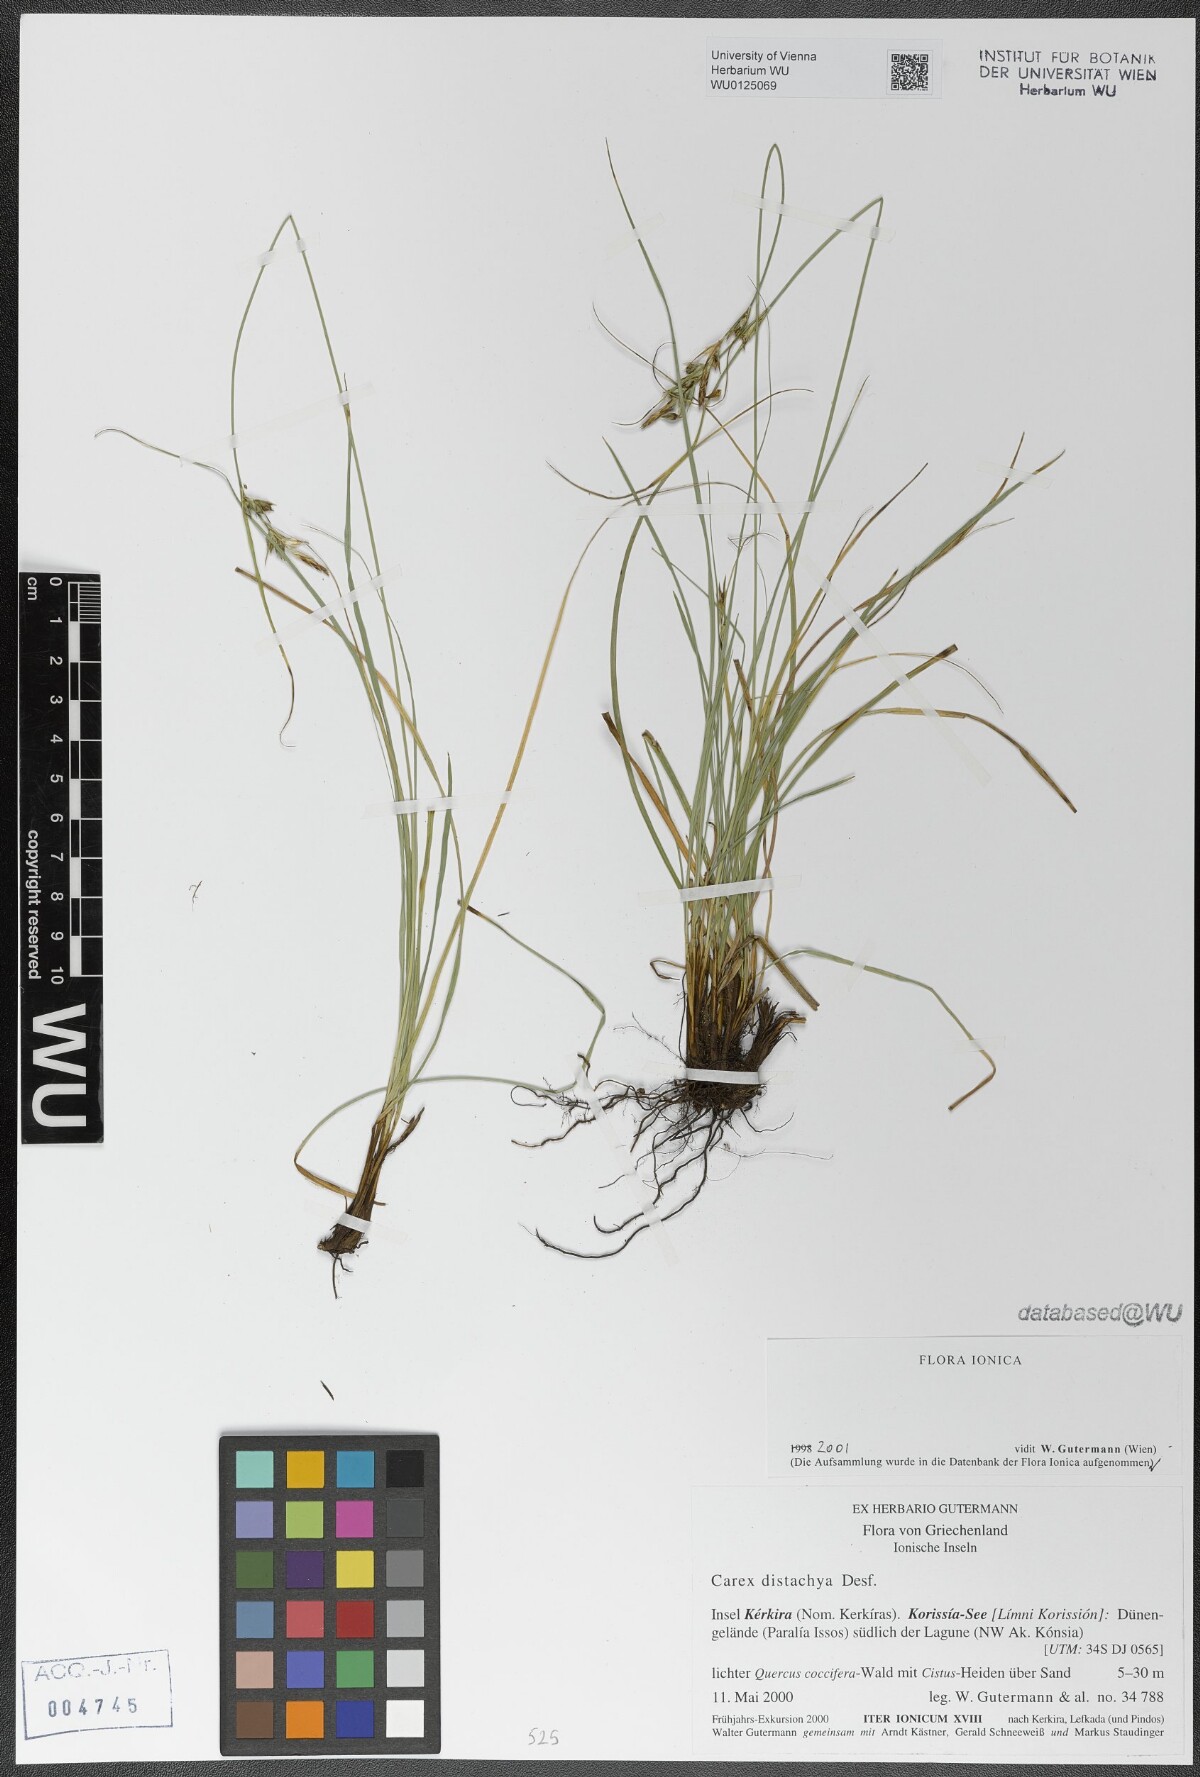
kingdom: Plantae
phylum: Tracheophyta
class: Liliopsida
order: Poales
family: Cyperaceae
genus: Carex
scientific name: Carex distachya
